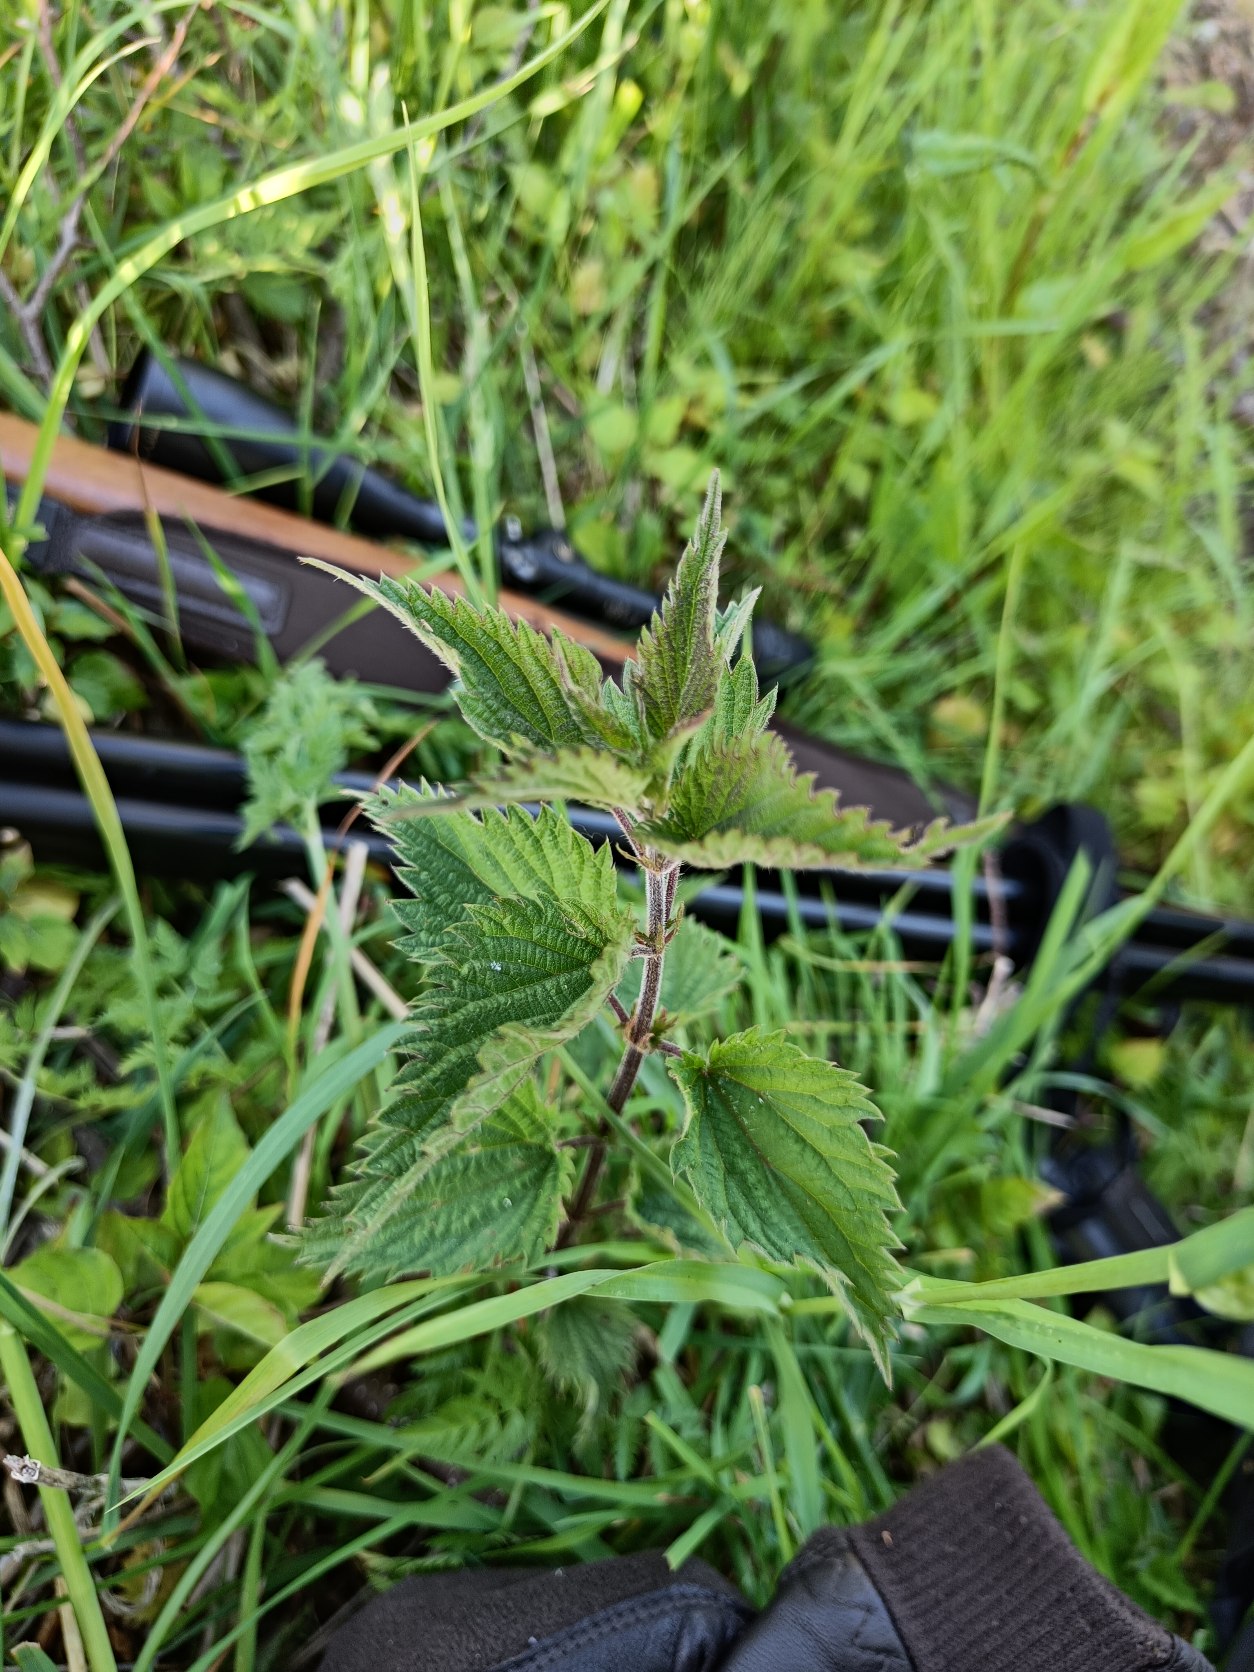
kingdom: Plantae
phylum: Tracheophyta
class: Magnoliopsida
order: Rosales
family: Urticaceae
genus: Urtica
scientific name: Urtica dioica
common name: Stor nælde
